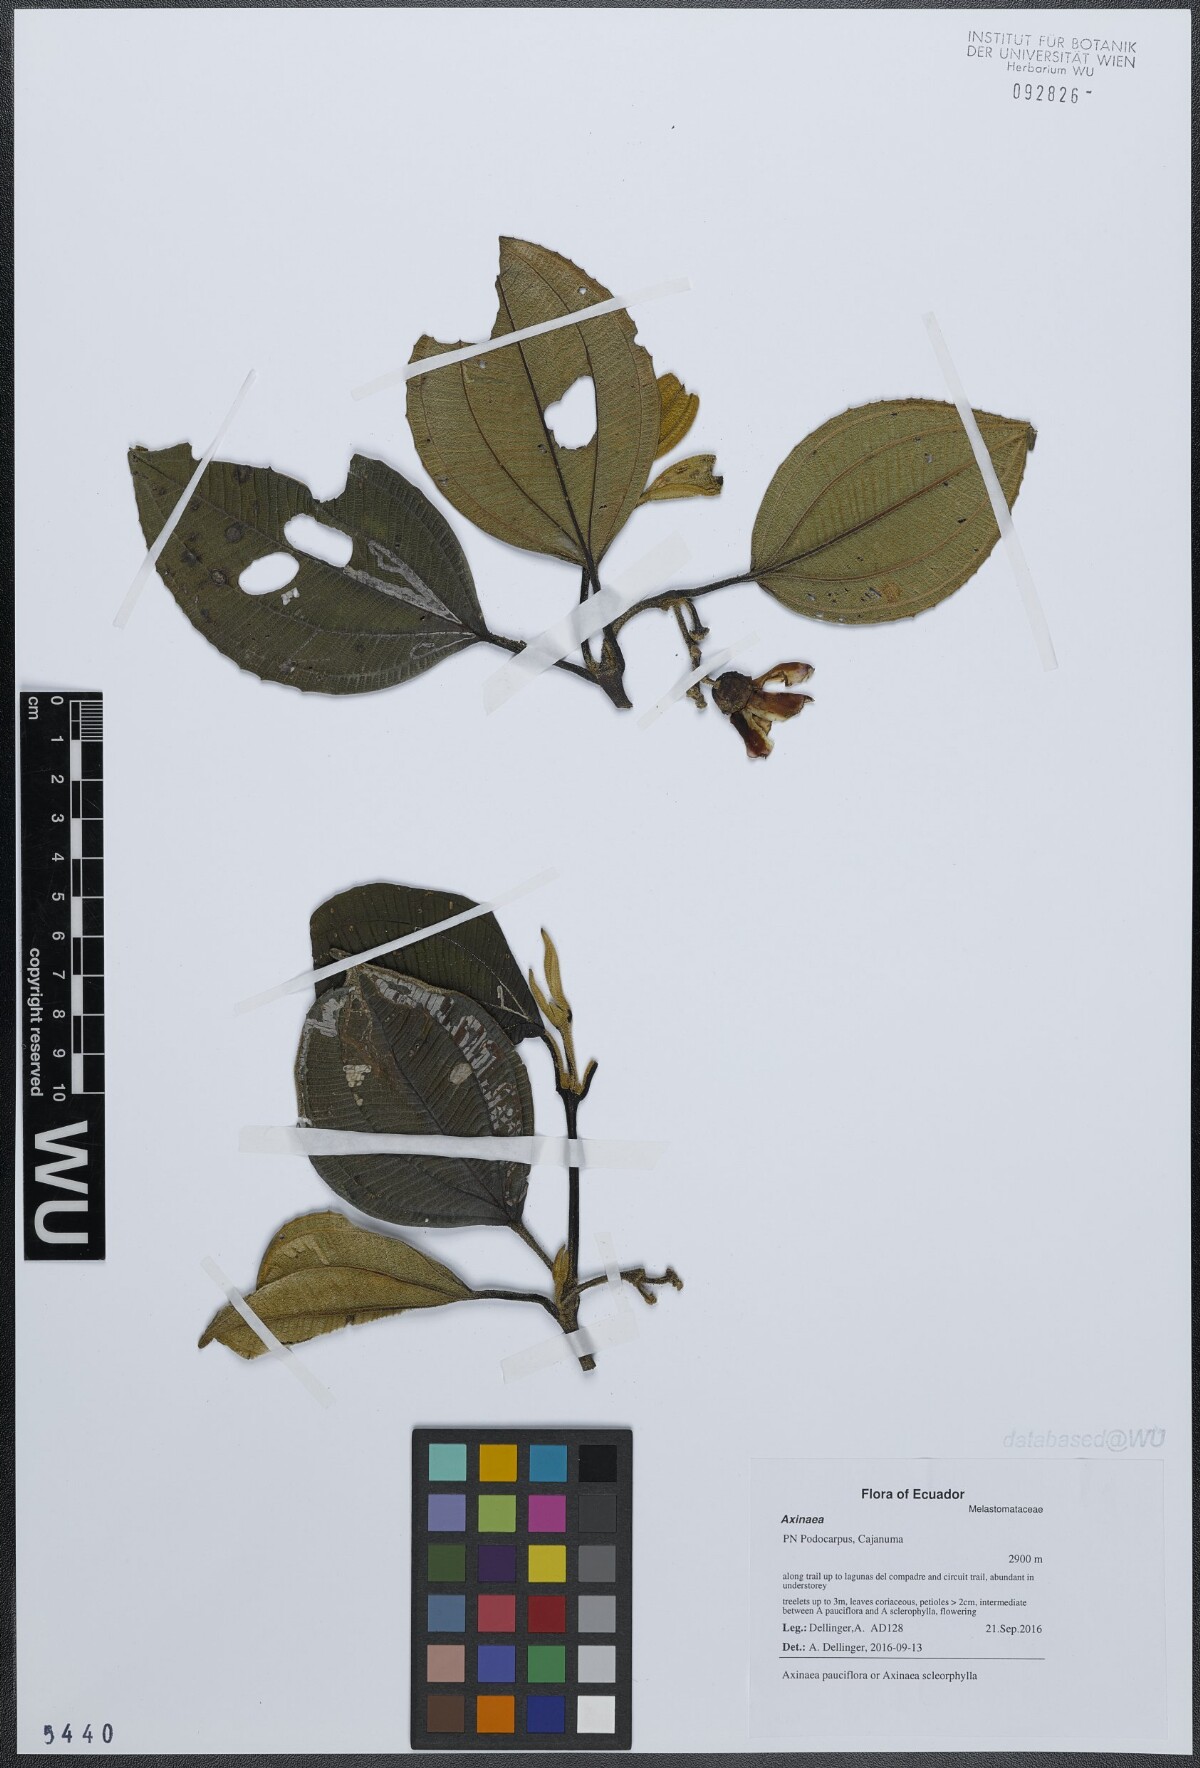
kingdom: Plantae
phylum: Tracheophyta
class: Magnoliopsida
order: Myrtales
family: Melastomataceae
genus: Axinaea
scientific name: Axinaea pauciflora
